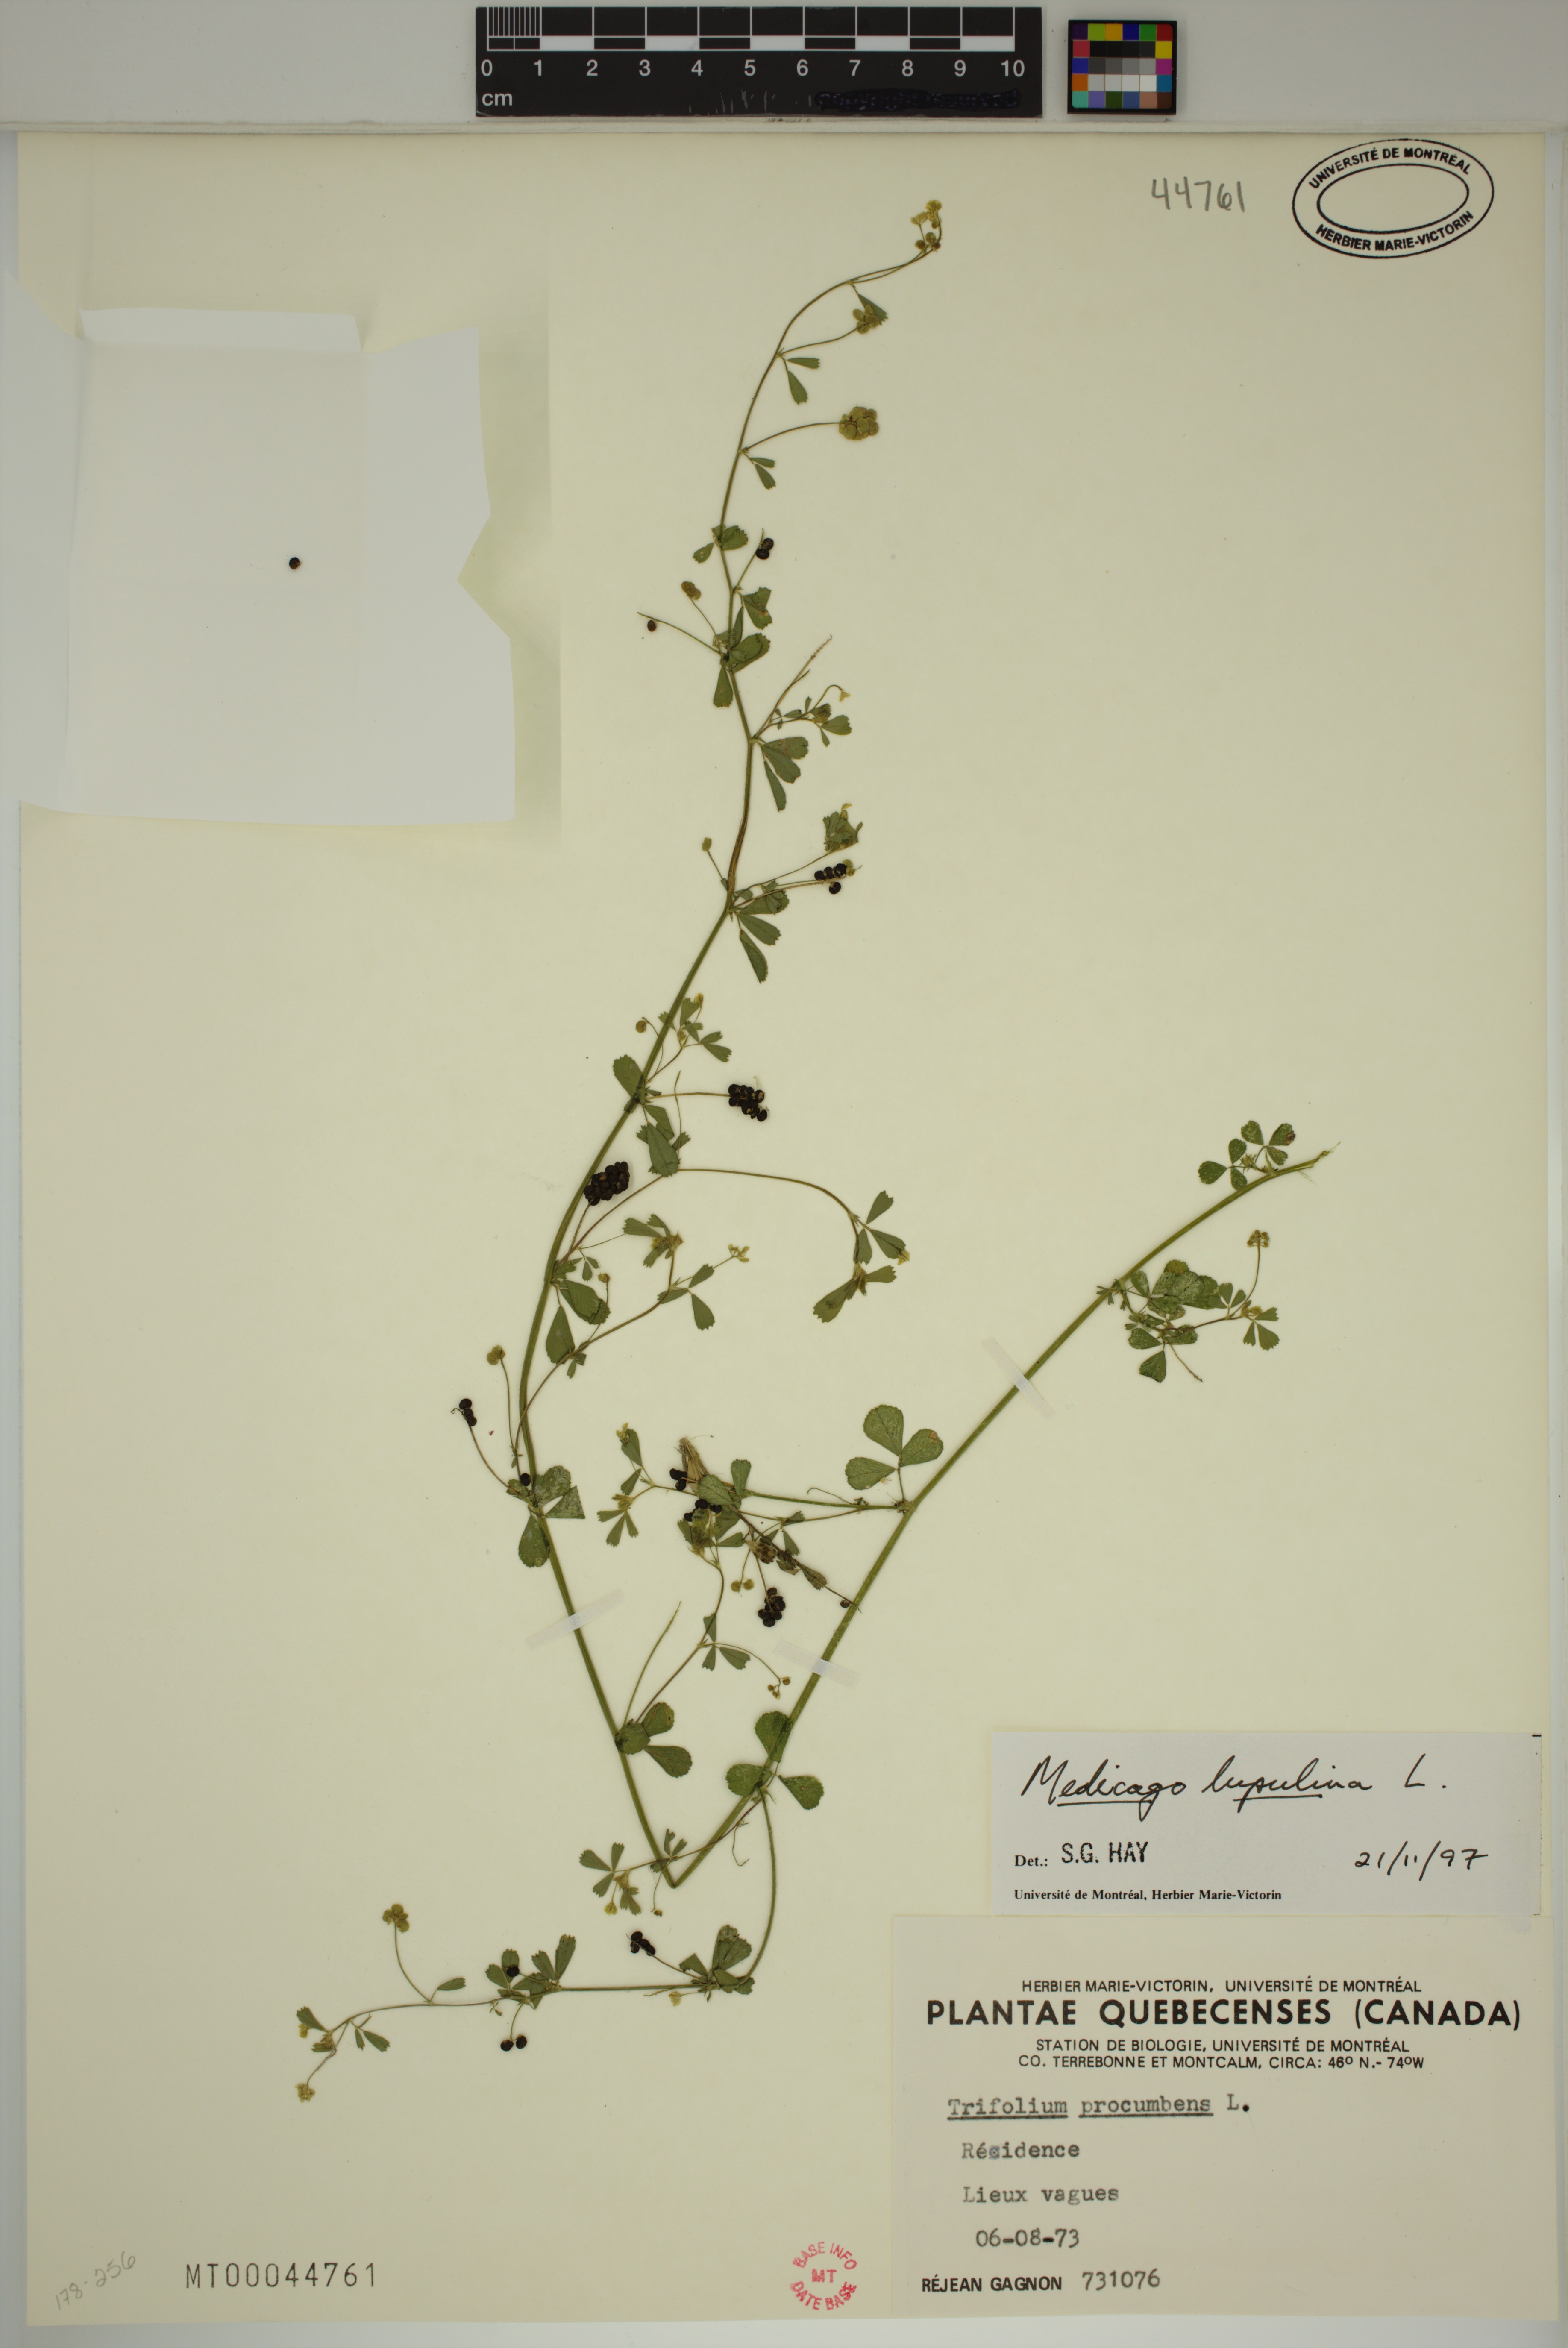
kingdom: Plantae
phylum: Tracheophyta
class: Magnoliopsida
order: Fabales
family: Fabaceae
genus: Medicago
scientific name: Medicago lupulina
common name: Black medick
